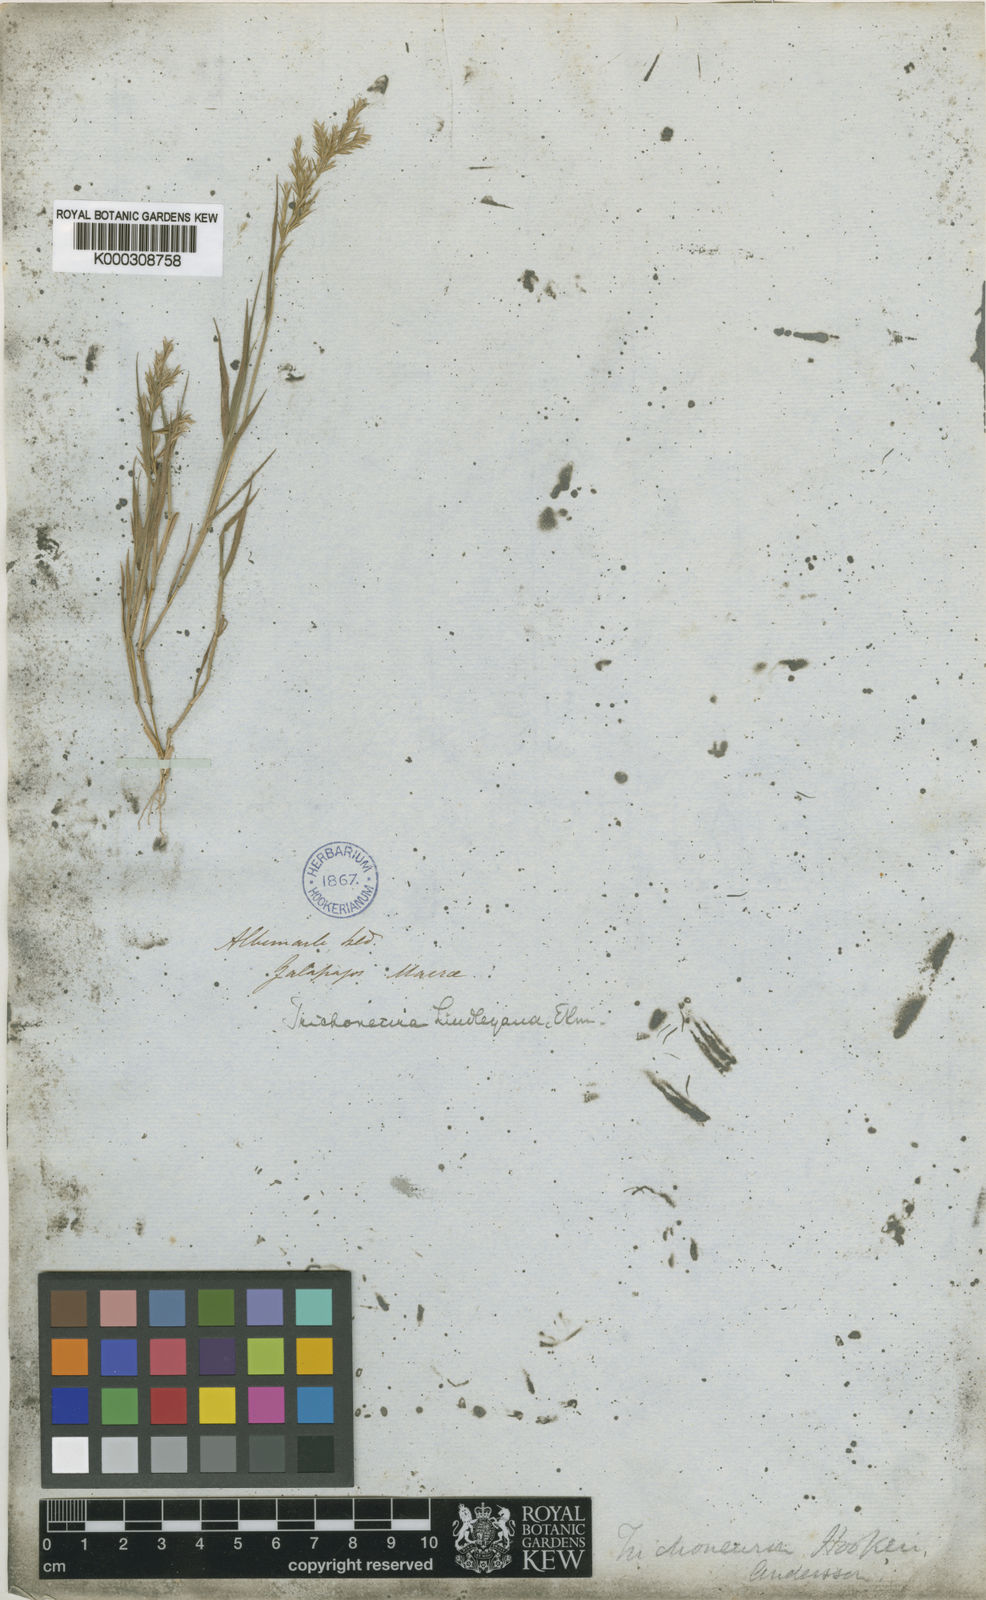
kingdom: Plantae
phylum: Tracheophyta
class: Liliopsida
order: Poales
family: Poaceae
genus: Trichoneura
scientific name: Trichoneura lindleyana
